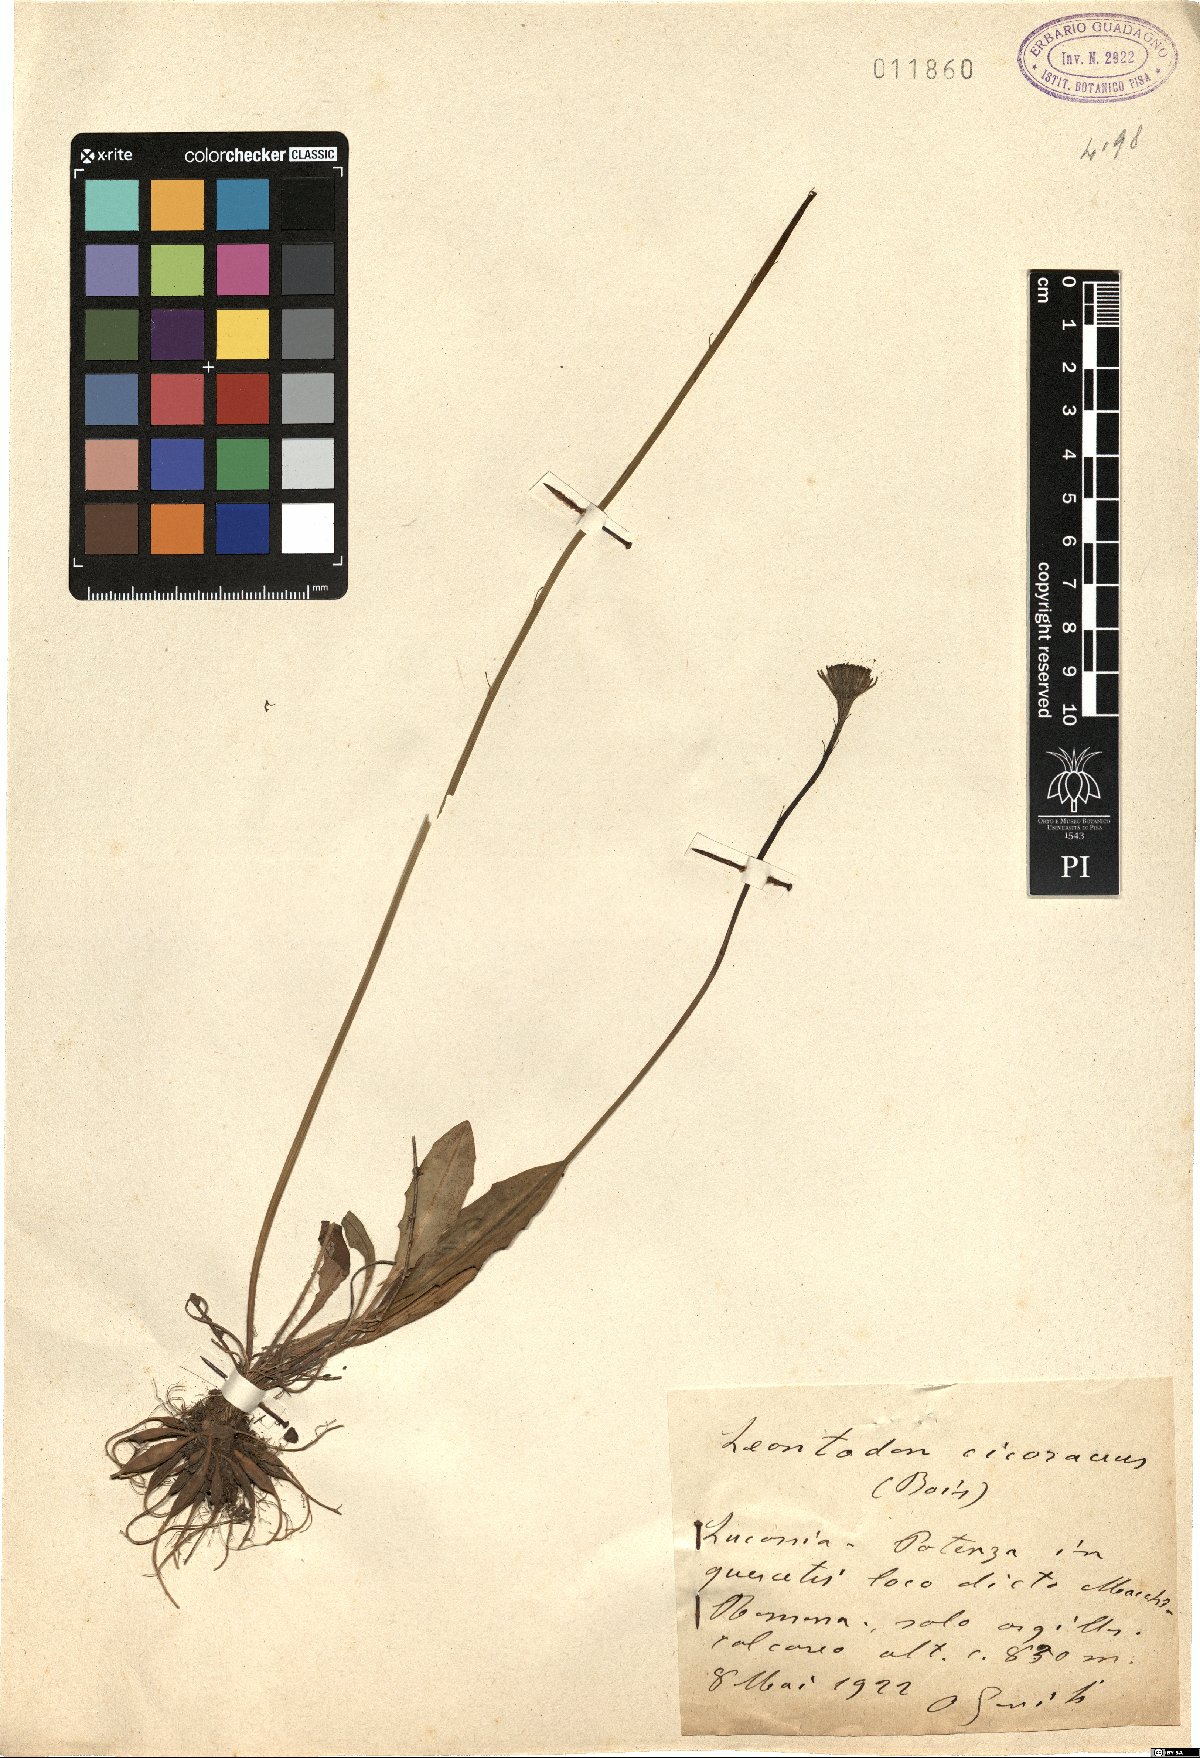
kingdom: Plantae
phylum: Tracheophyta
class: Magnoliopsida
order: Asterales
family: Asteraceae
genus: Scorzoneroides
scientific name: Scorzoneroides cichoriacea
